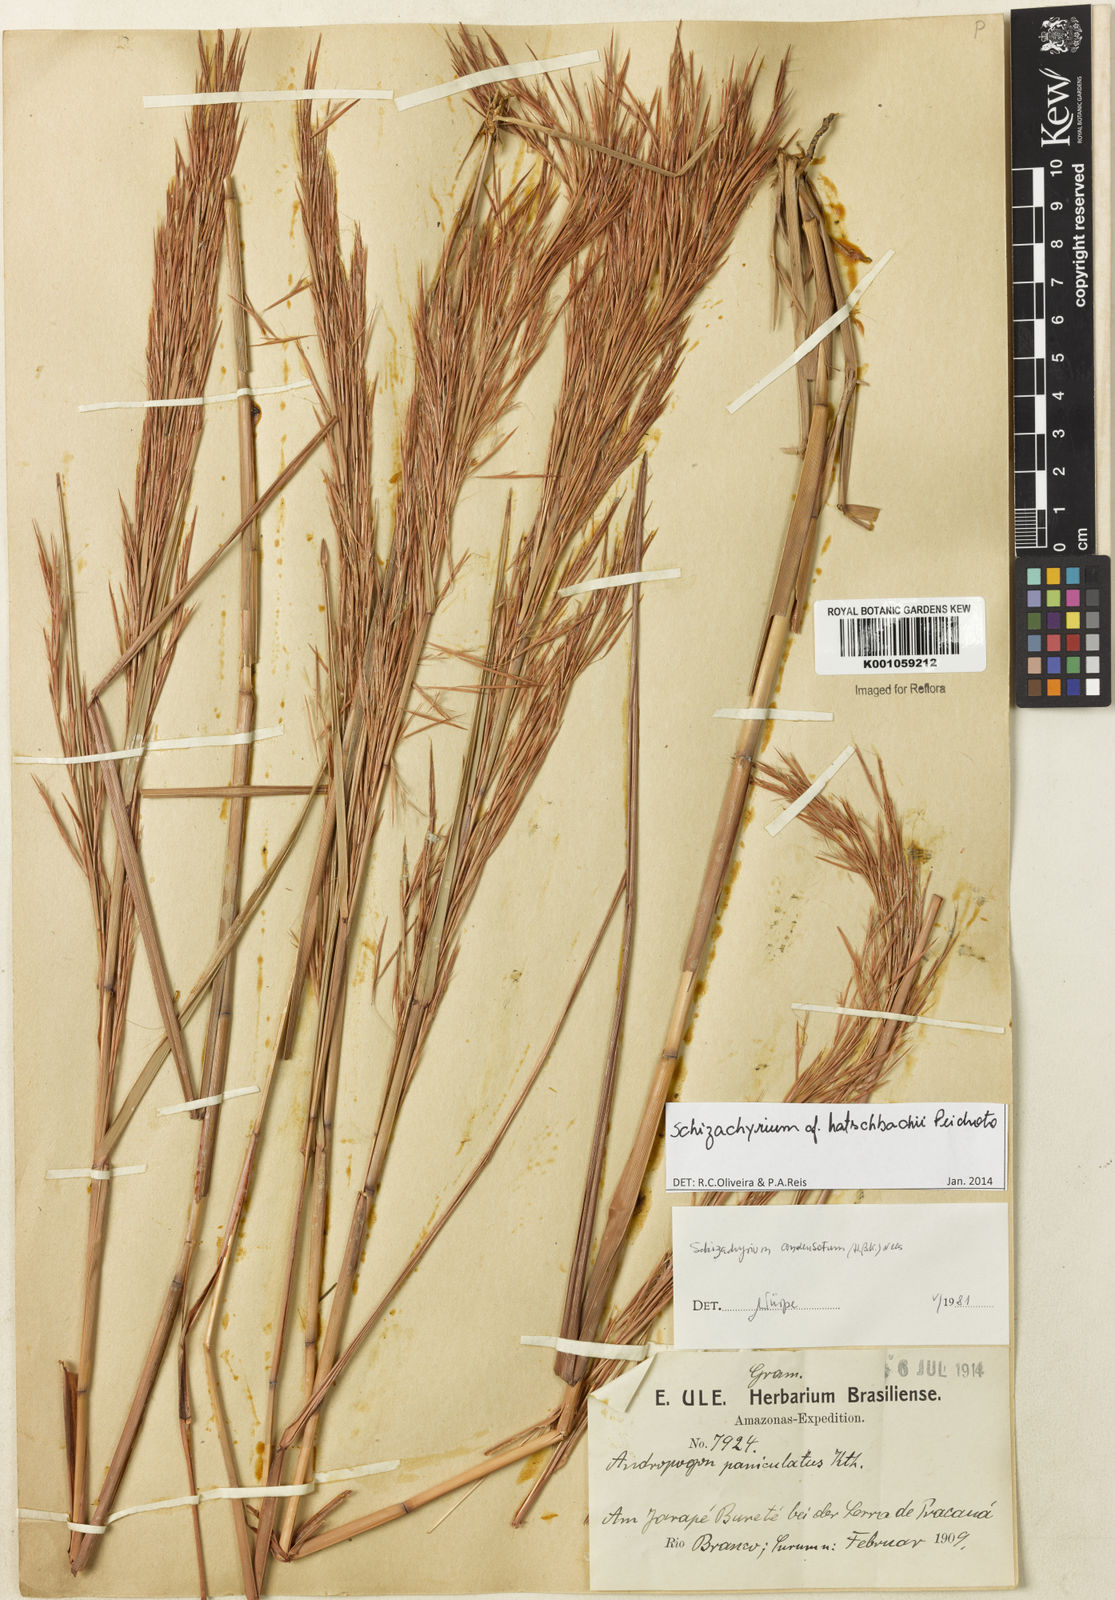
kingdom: Plantae
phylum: Tracheophyta
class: Liliopsida
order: Poales
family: Poaceae
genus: Schizachyrium
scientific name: Schizachyrium hatschbachii
